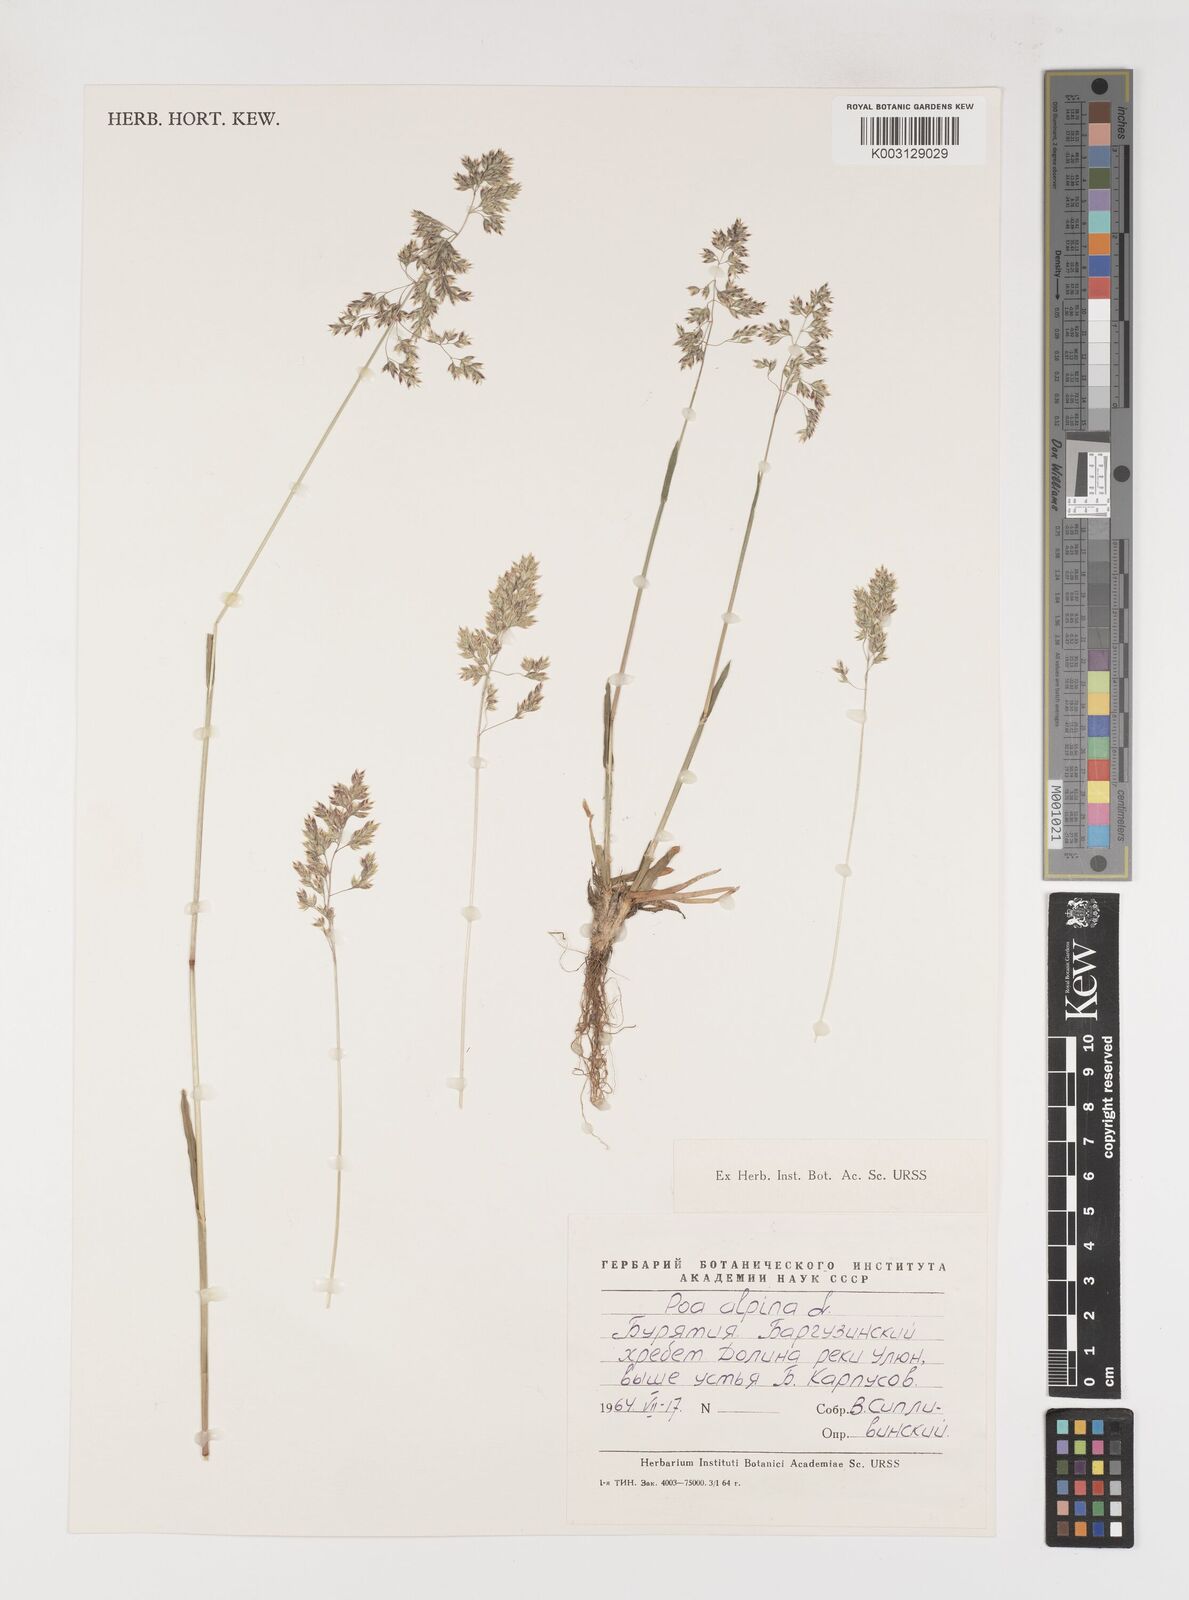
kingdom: Plantae
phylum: Tracheophyta
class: Liliopsida
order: Poales
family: Poaceae
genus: Poa
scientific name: Poa alpina
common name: Alpine bluegrass
